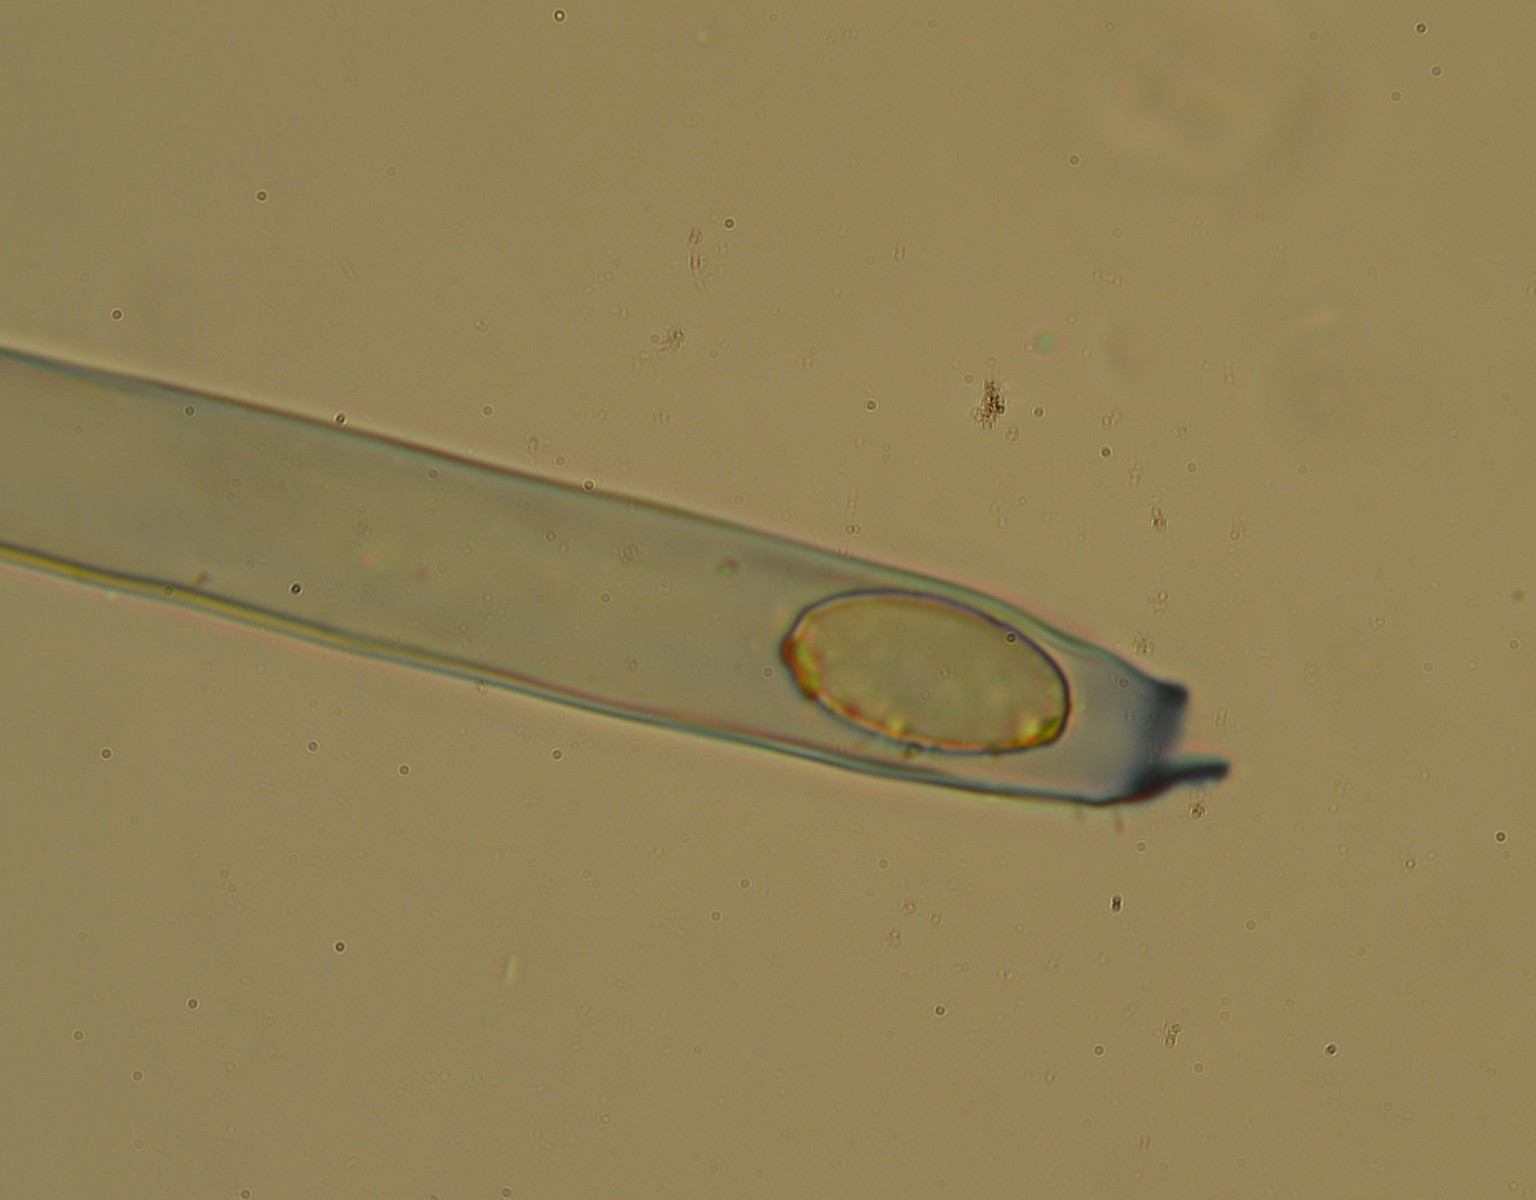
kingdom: Fungi
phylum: Ascomycota
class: Pezizomycetes
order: Pezizales
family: Pezizaceae
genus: Peziza
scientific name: Peziza fimeti
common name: møg-bægersvamp
